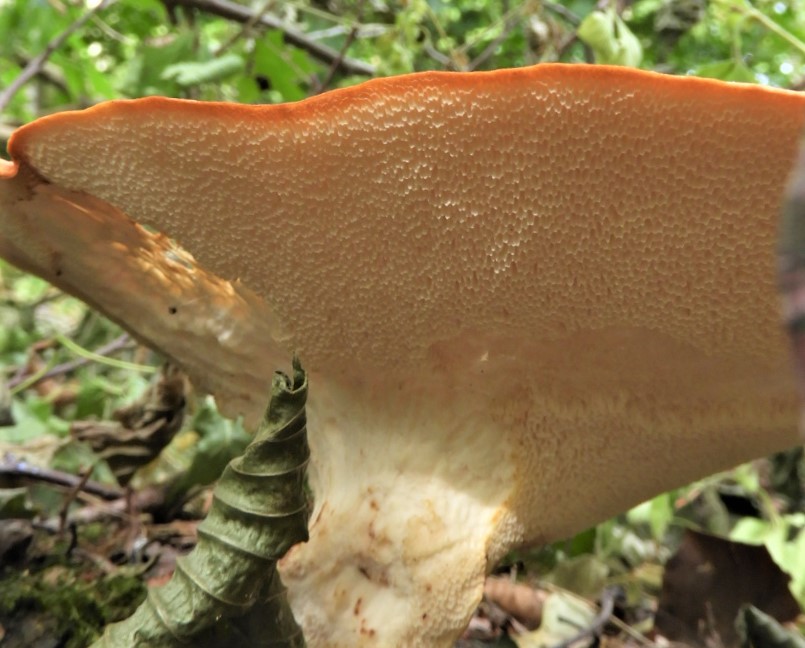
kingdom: Fungi
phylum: Basidiomycota
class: Agaricomycetes
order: Polyporales
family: Polyporaceae
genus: Cerioporus
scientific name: Cerioporus squamosus
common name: skællet stilkporesvamp
